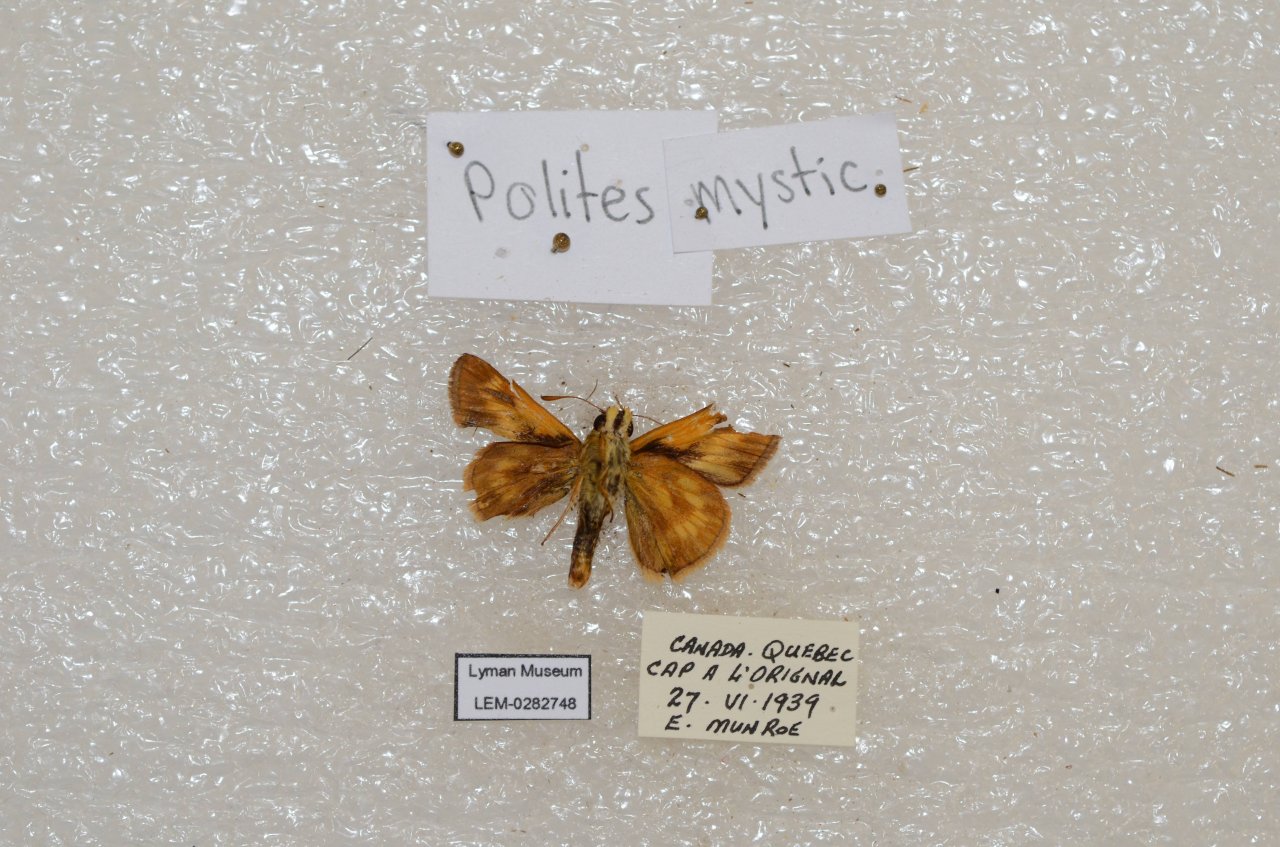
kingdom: Animalia
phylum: Arthropoda
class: Insecta
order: Lepidoptera
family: Hesperiidae
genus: Polites
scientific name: Polites
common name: Long Dash Skipper
